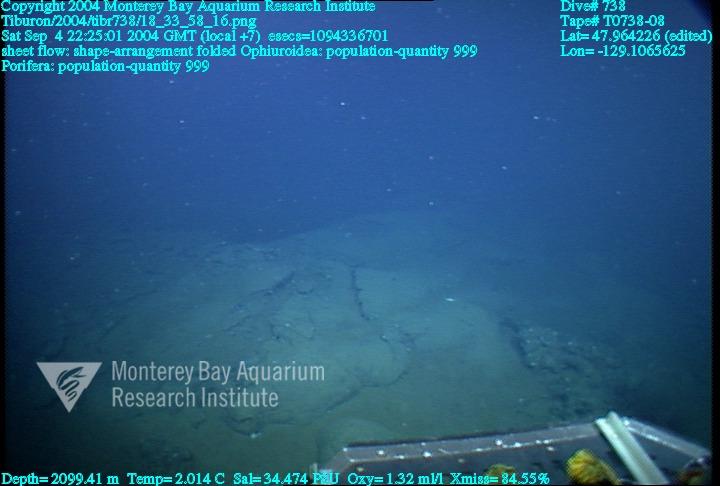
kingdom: Animalia
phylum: Porifera
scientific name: Porifera
